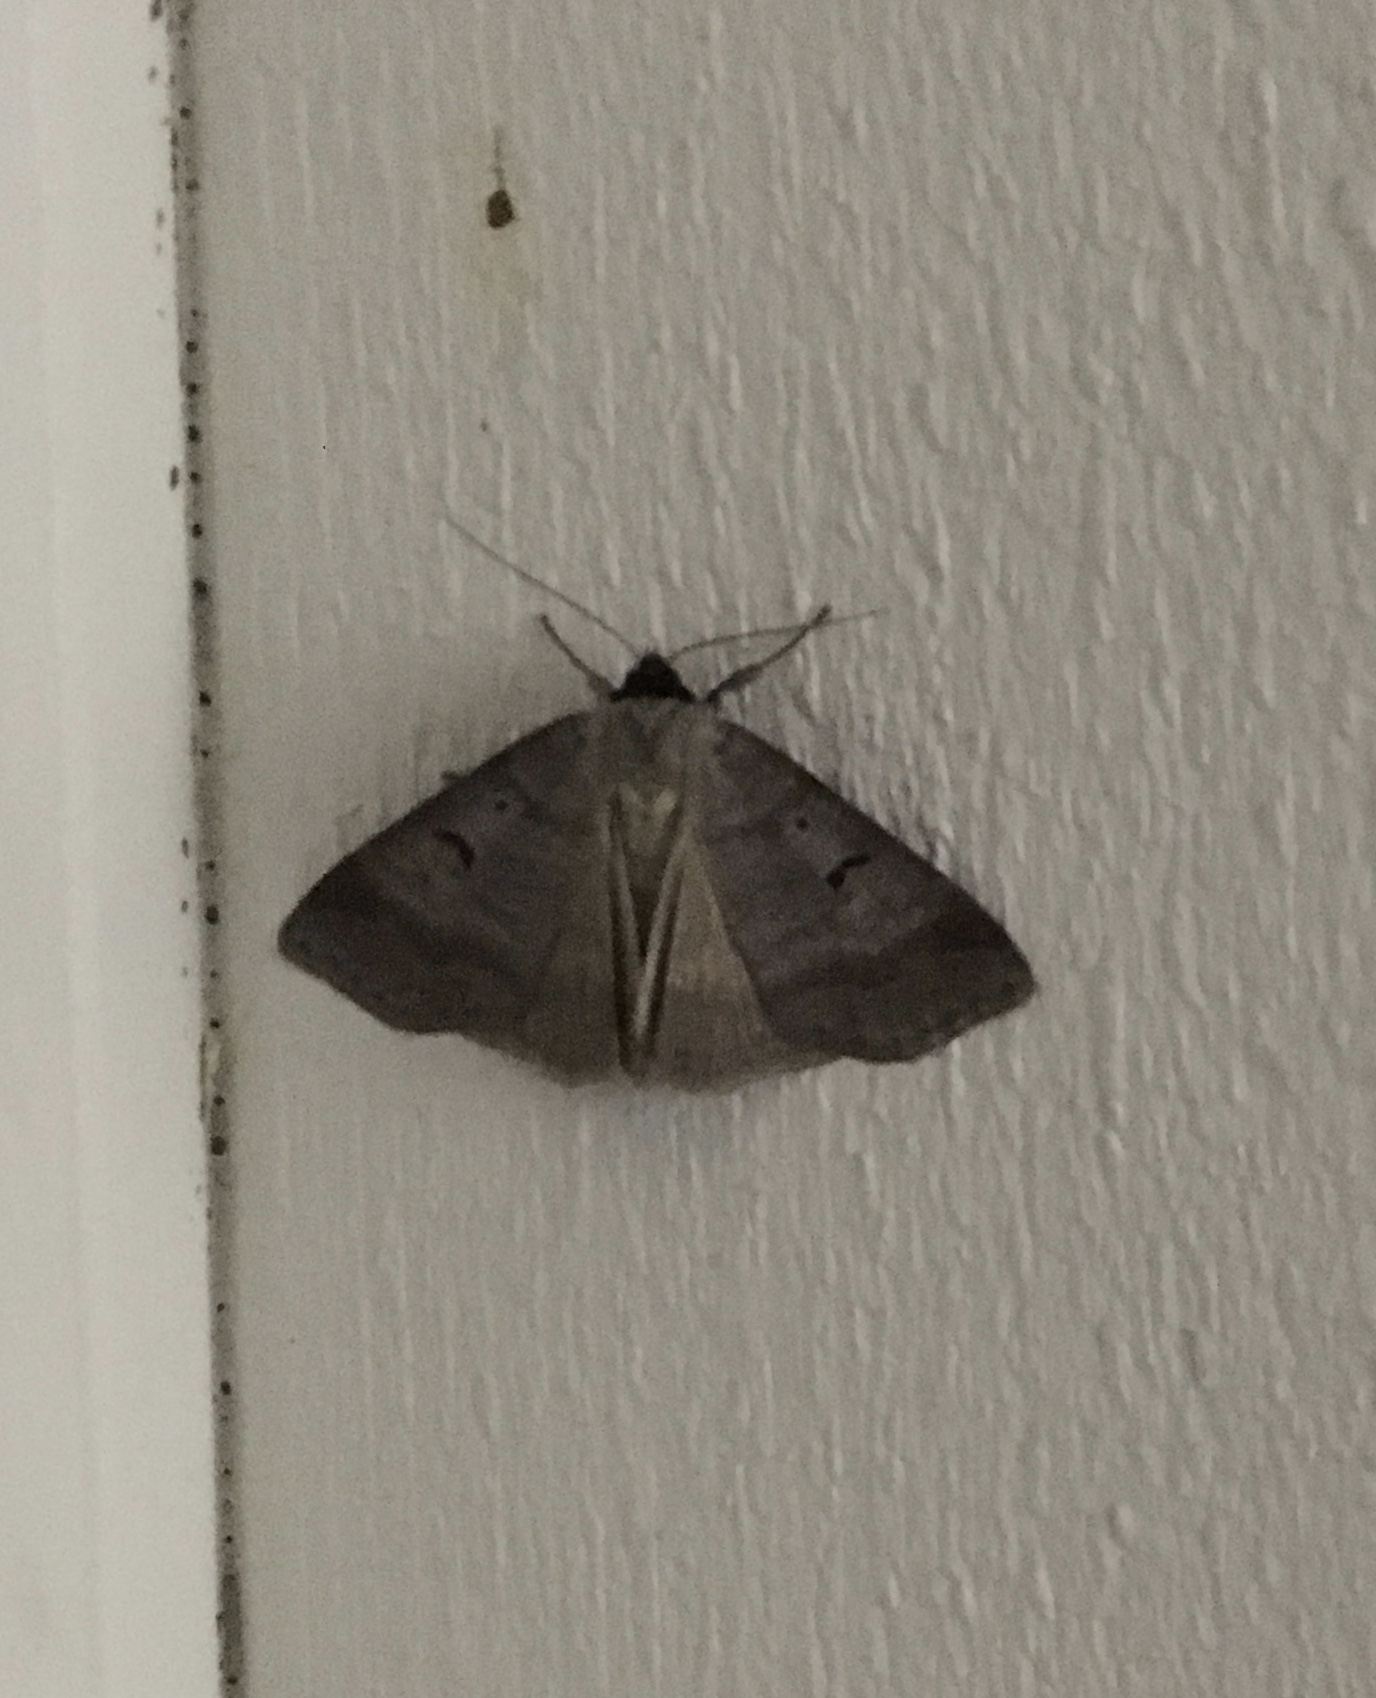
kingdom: Animalia
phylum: Arthropoda
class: Insecta
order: Lepidoptera
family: Erebidae
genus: Lygephila
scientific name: Lygephila pastinum
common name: Blackneck
